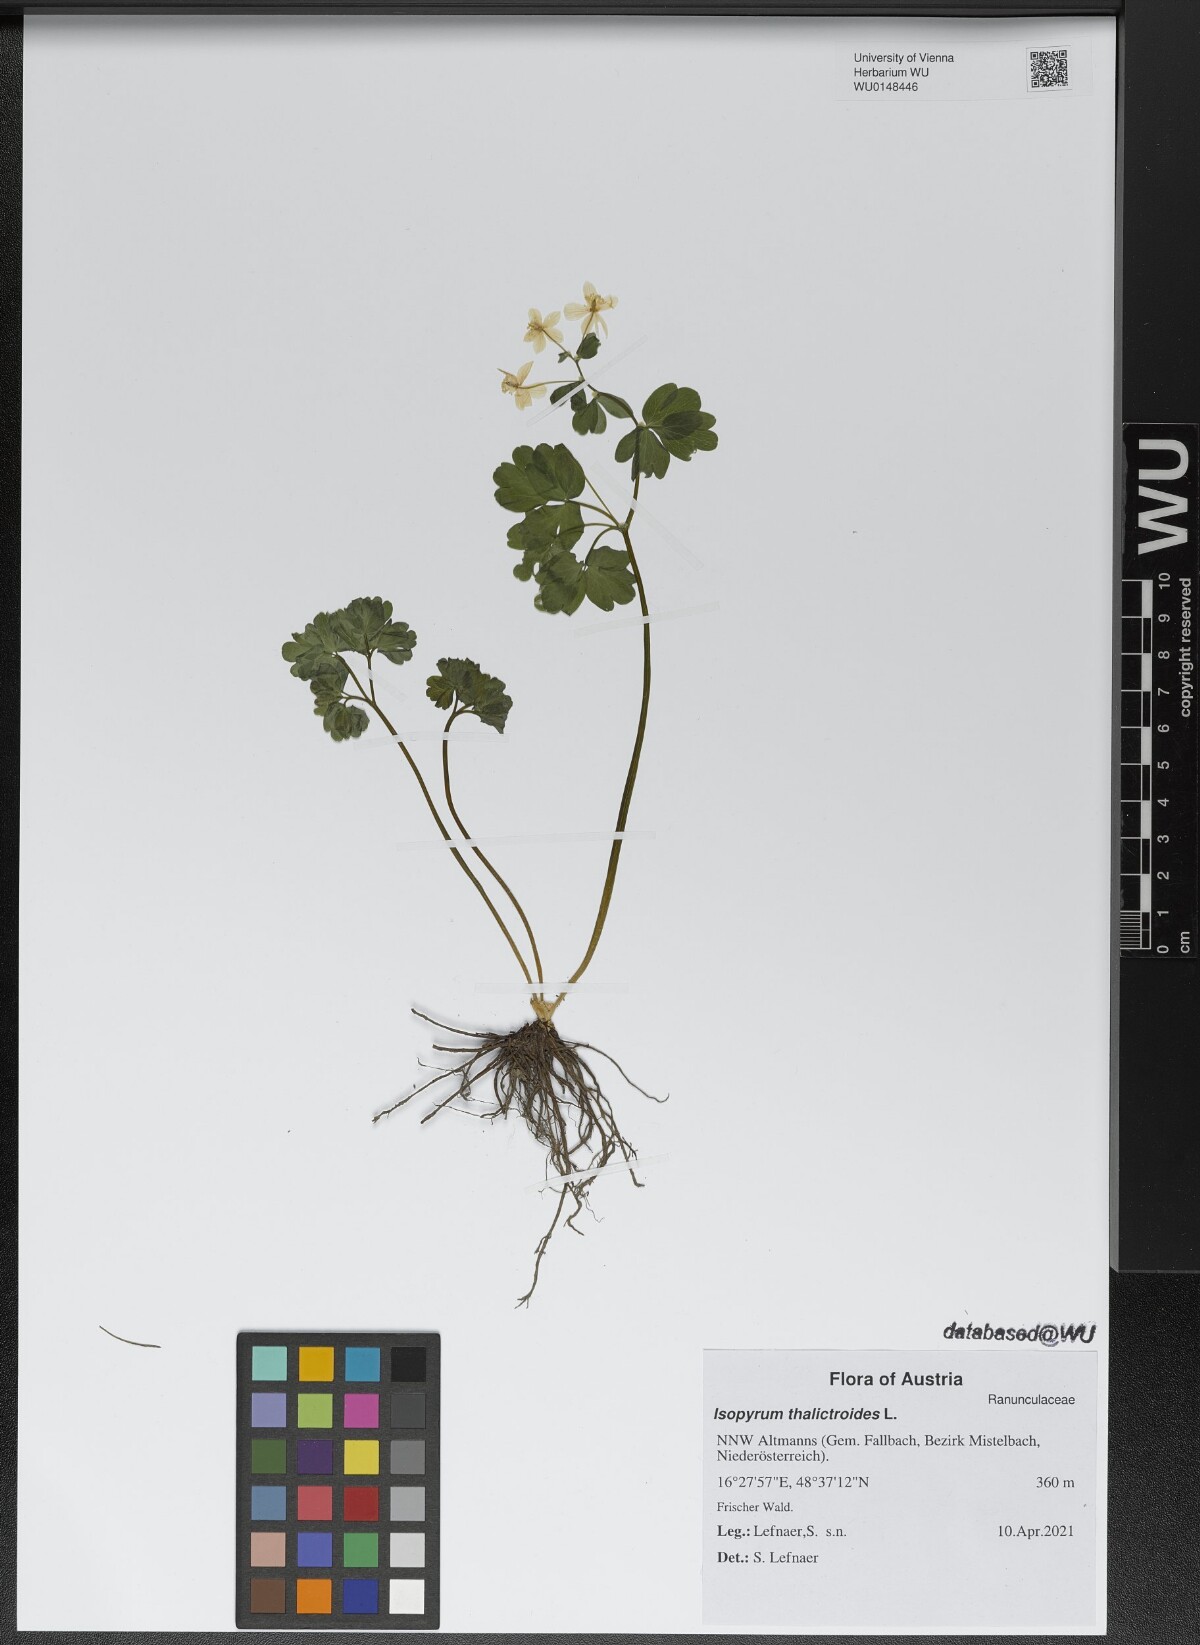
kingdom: Plantae
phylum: Tracheophyta
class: Magnoliopsida
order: Ranunculales
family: Ranunculaceae
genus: Isopyrum
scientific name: Isopyrum thalictroides
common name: Isopyrum
